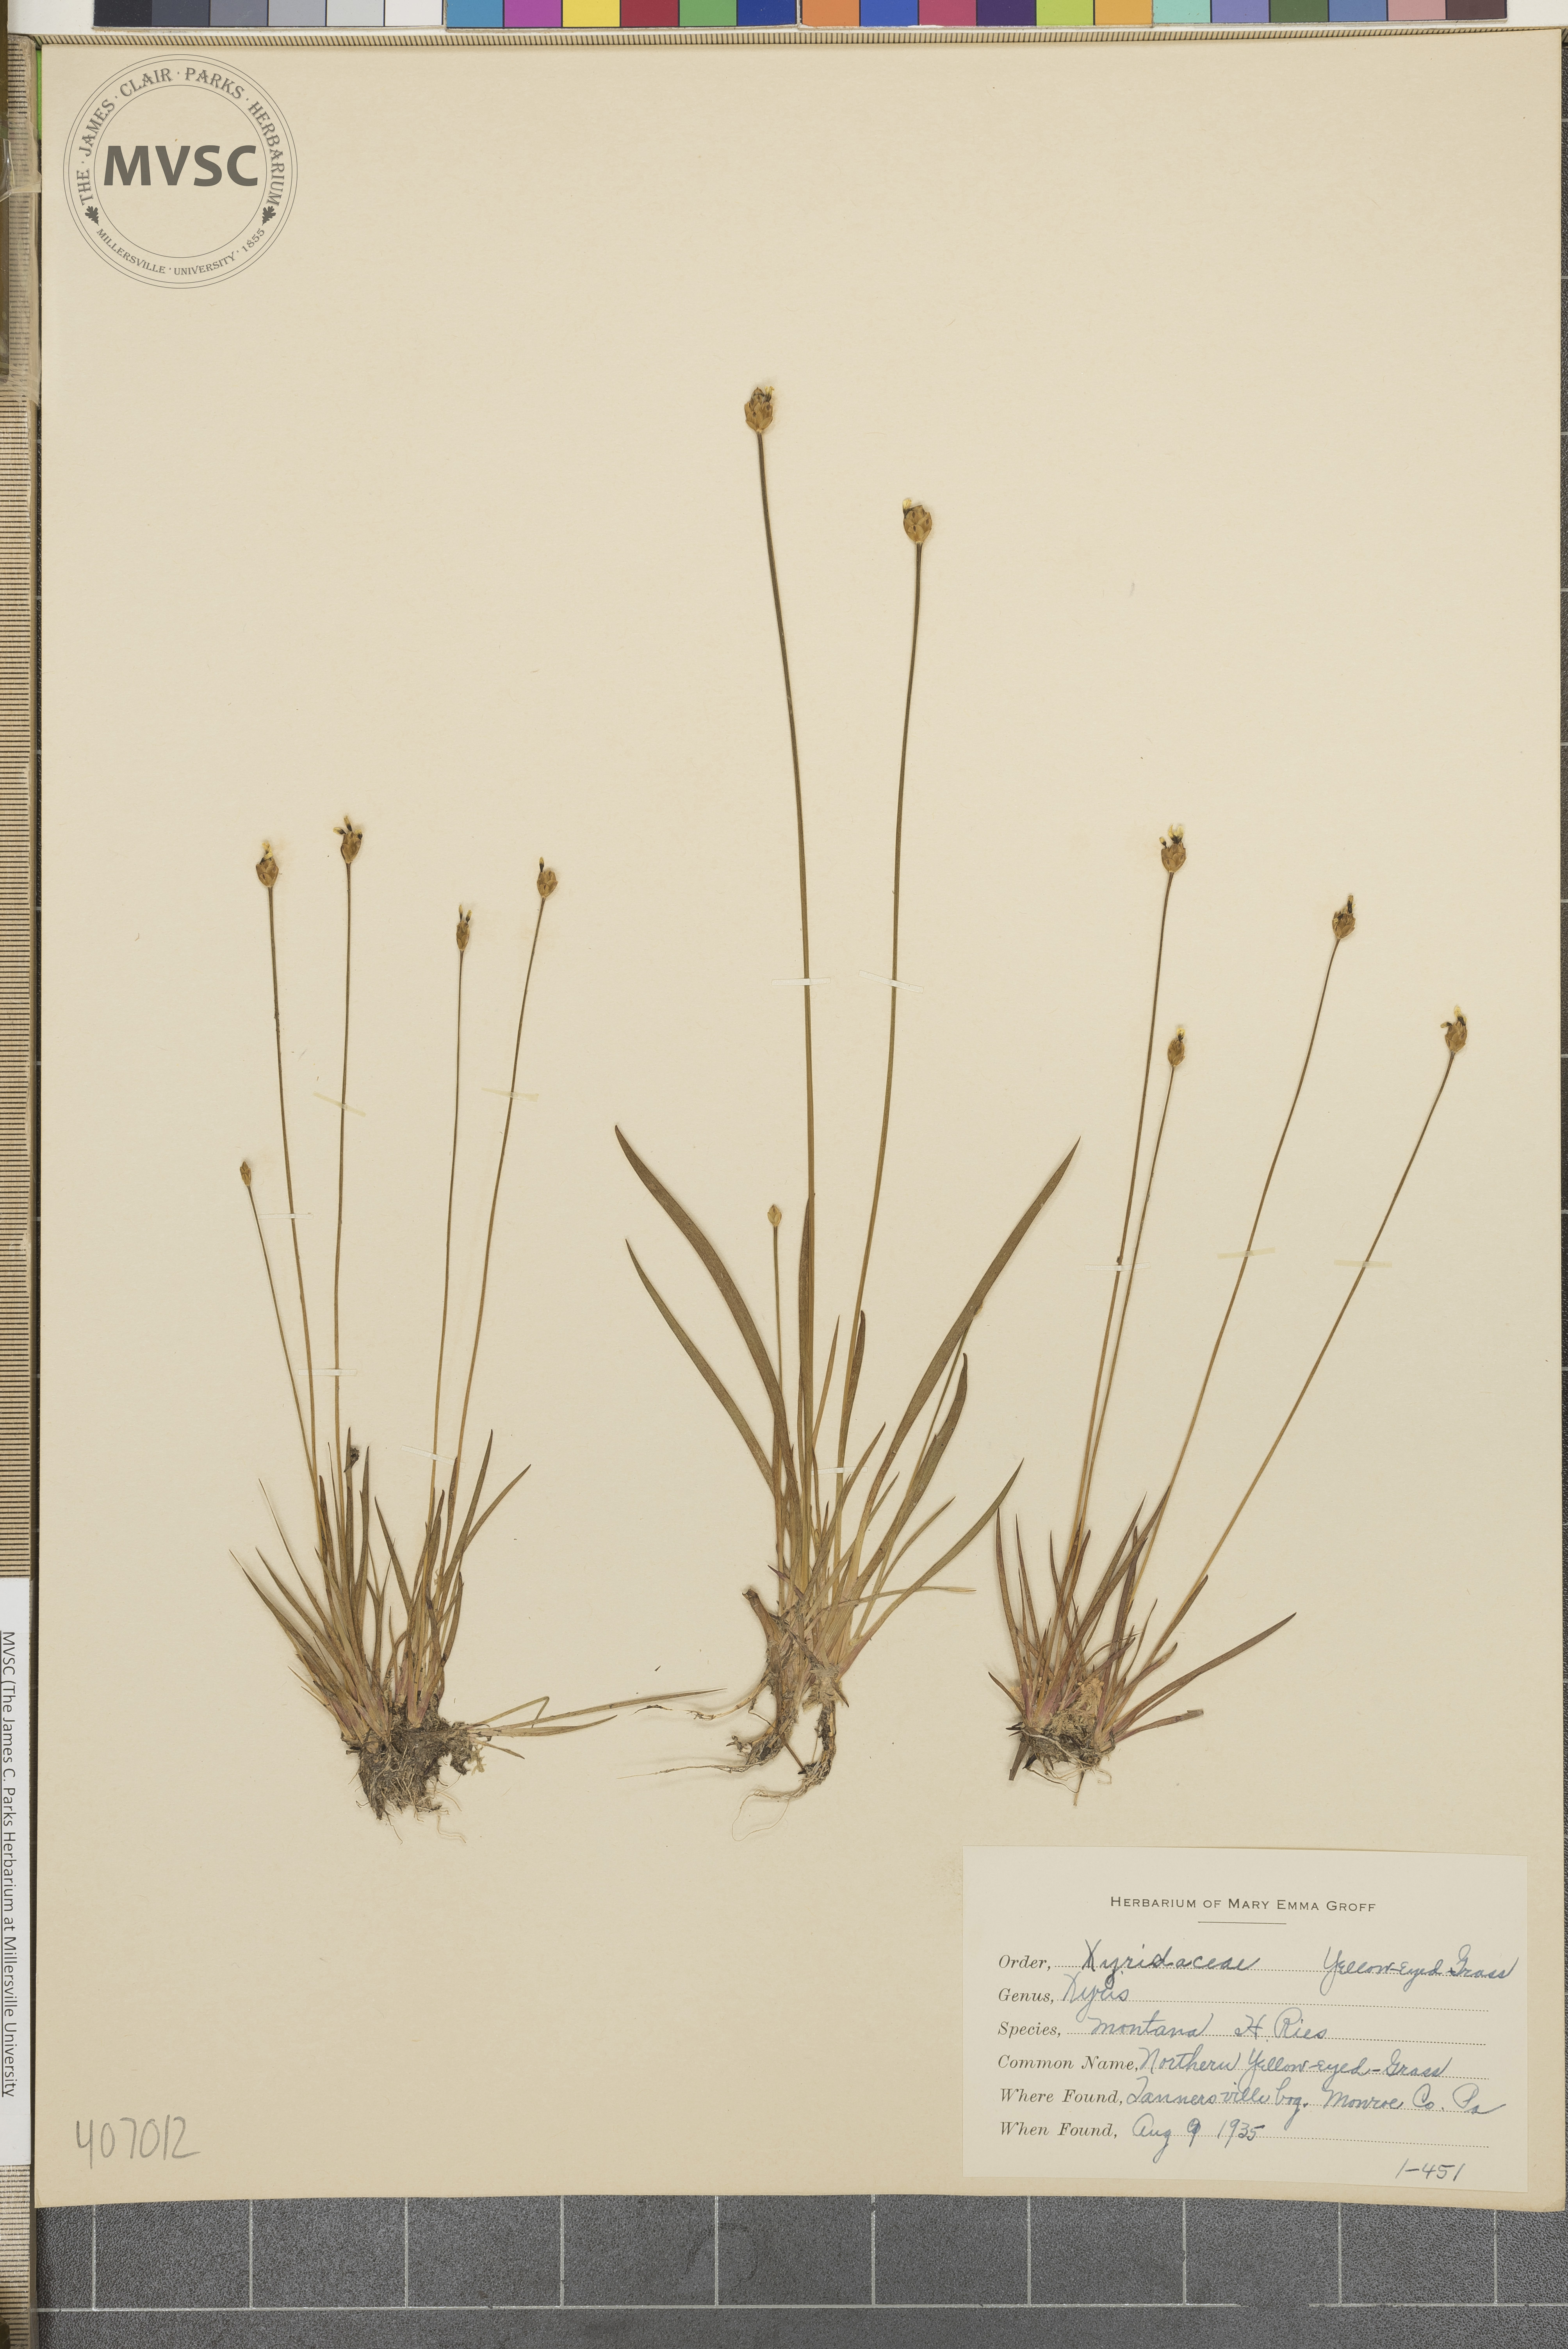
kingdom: Plantae
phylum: Tracheophyta
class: Liliopsida
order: Poales
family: Xyridaceae
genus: Xyris
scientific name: Xyris montana
